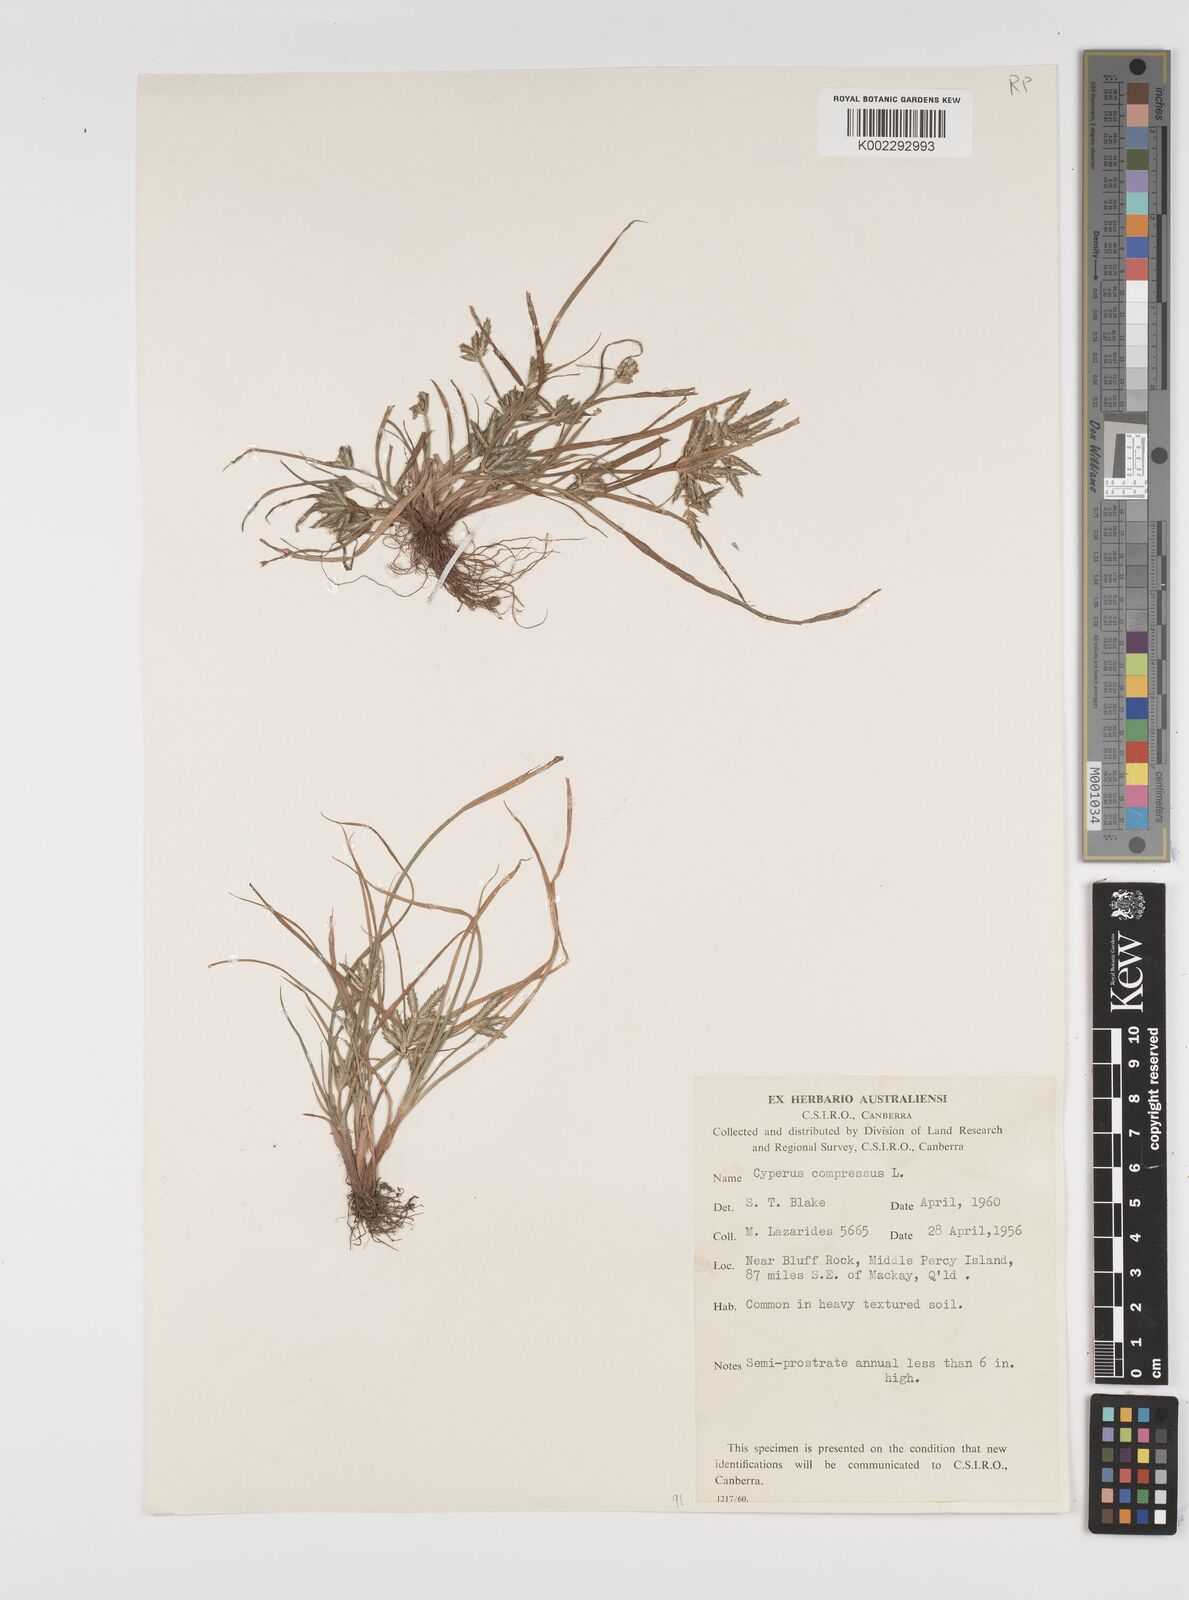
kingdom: Plantae
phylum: Tracheophyta
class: Liliopsida
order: Poales
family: Cyperaceae
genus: Cyperus
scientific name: Cyperus compressus
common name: Poorland flatsedge
